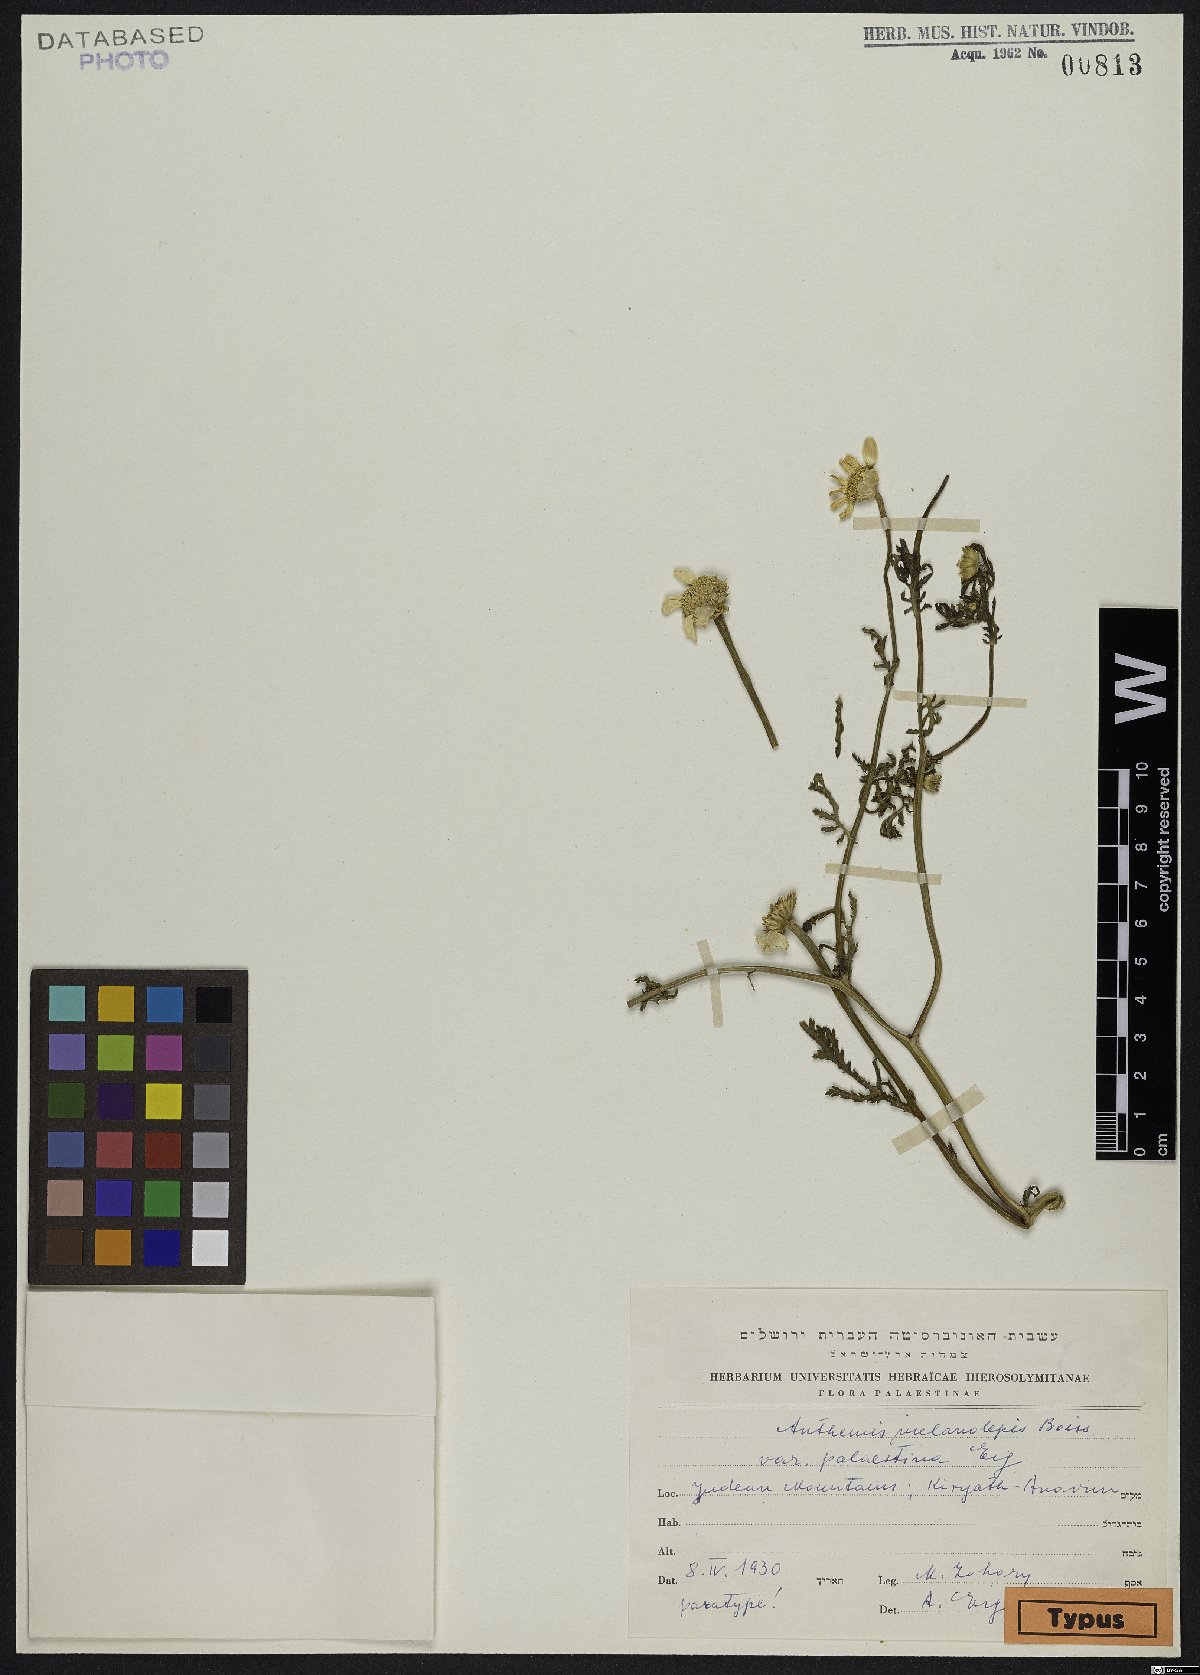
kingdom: Plantae
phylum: Tracheophyta
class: Magnoliopsida
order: Asterales
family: Asteraceae
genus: Cota
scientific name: Cota palaestina
